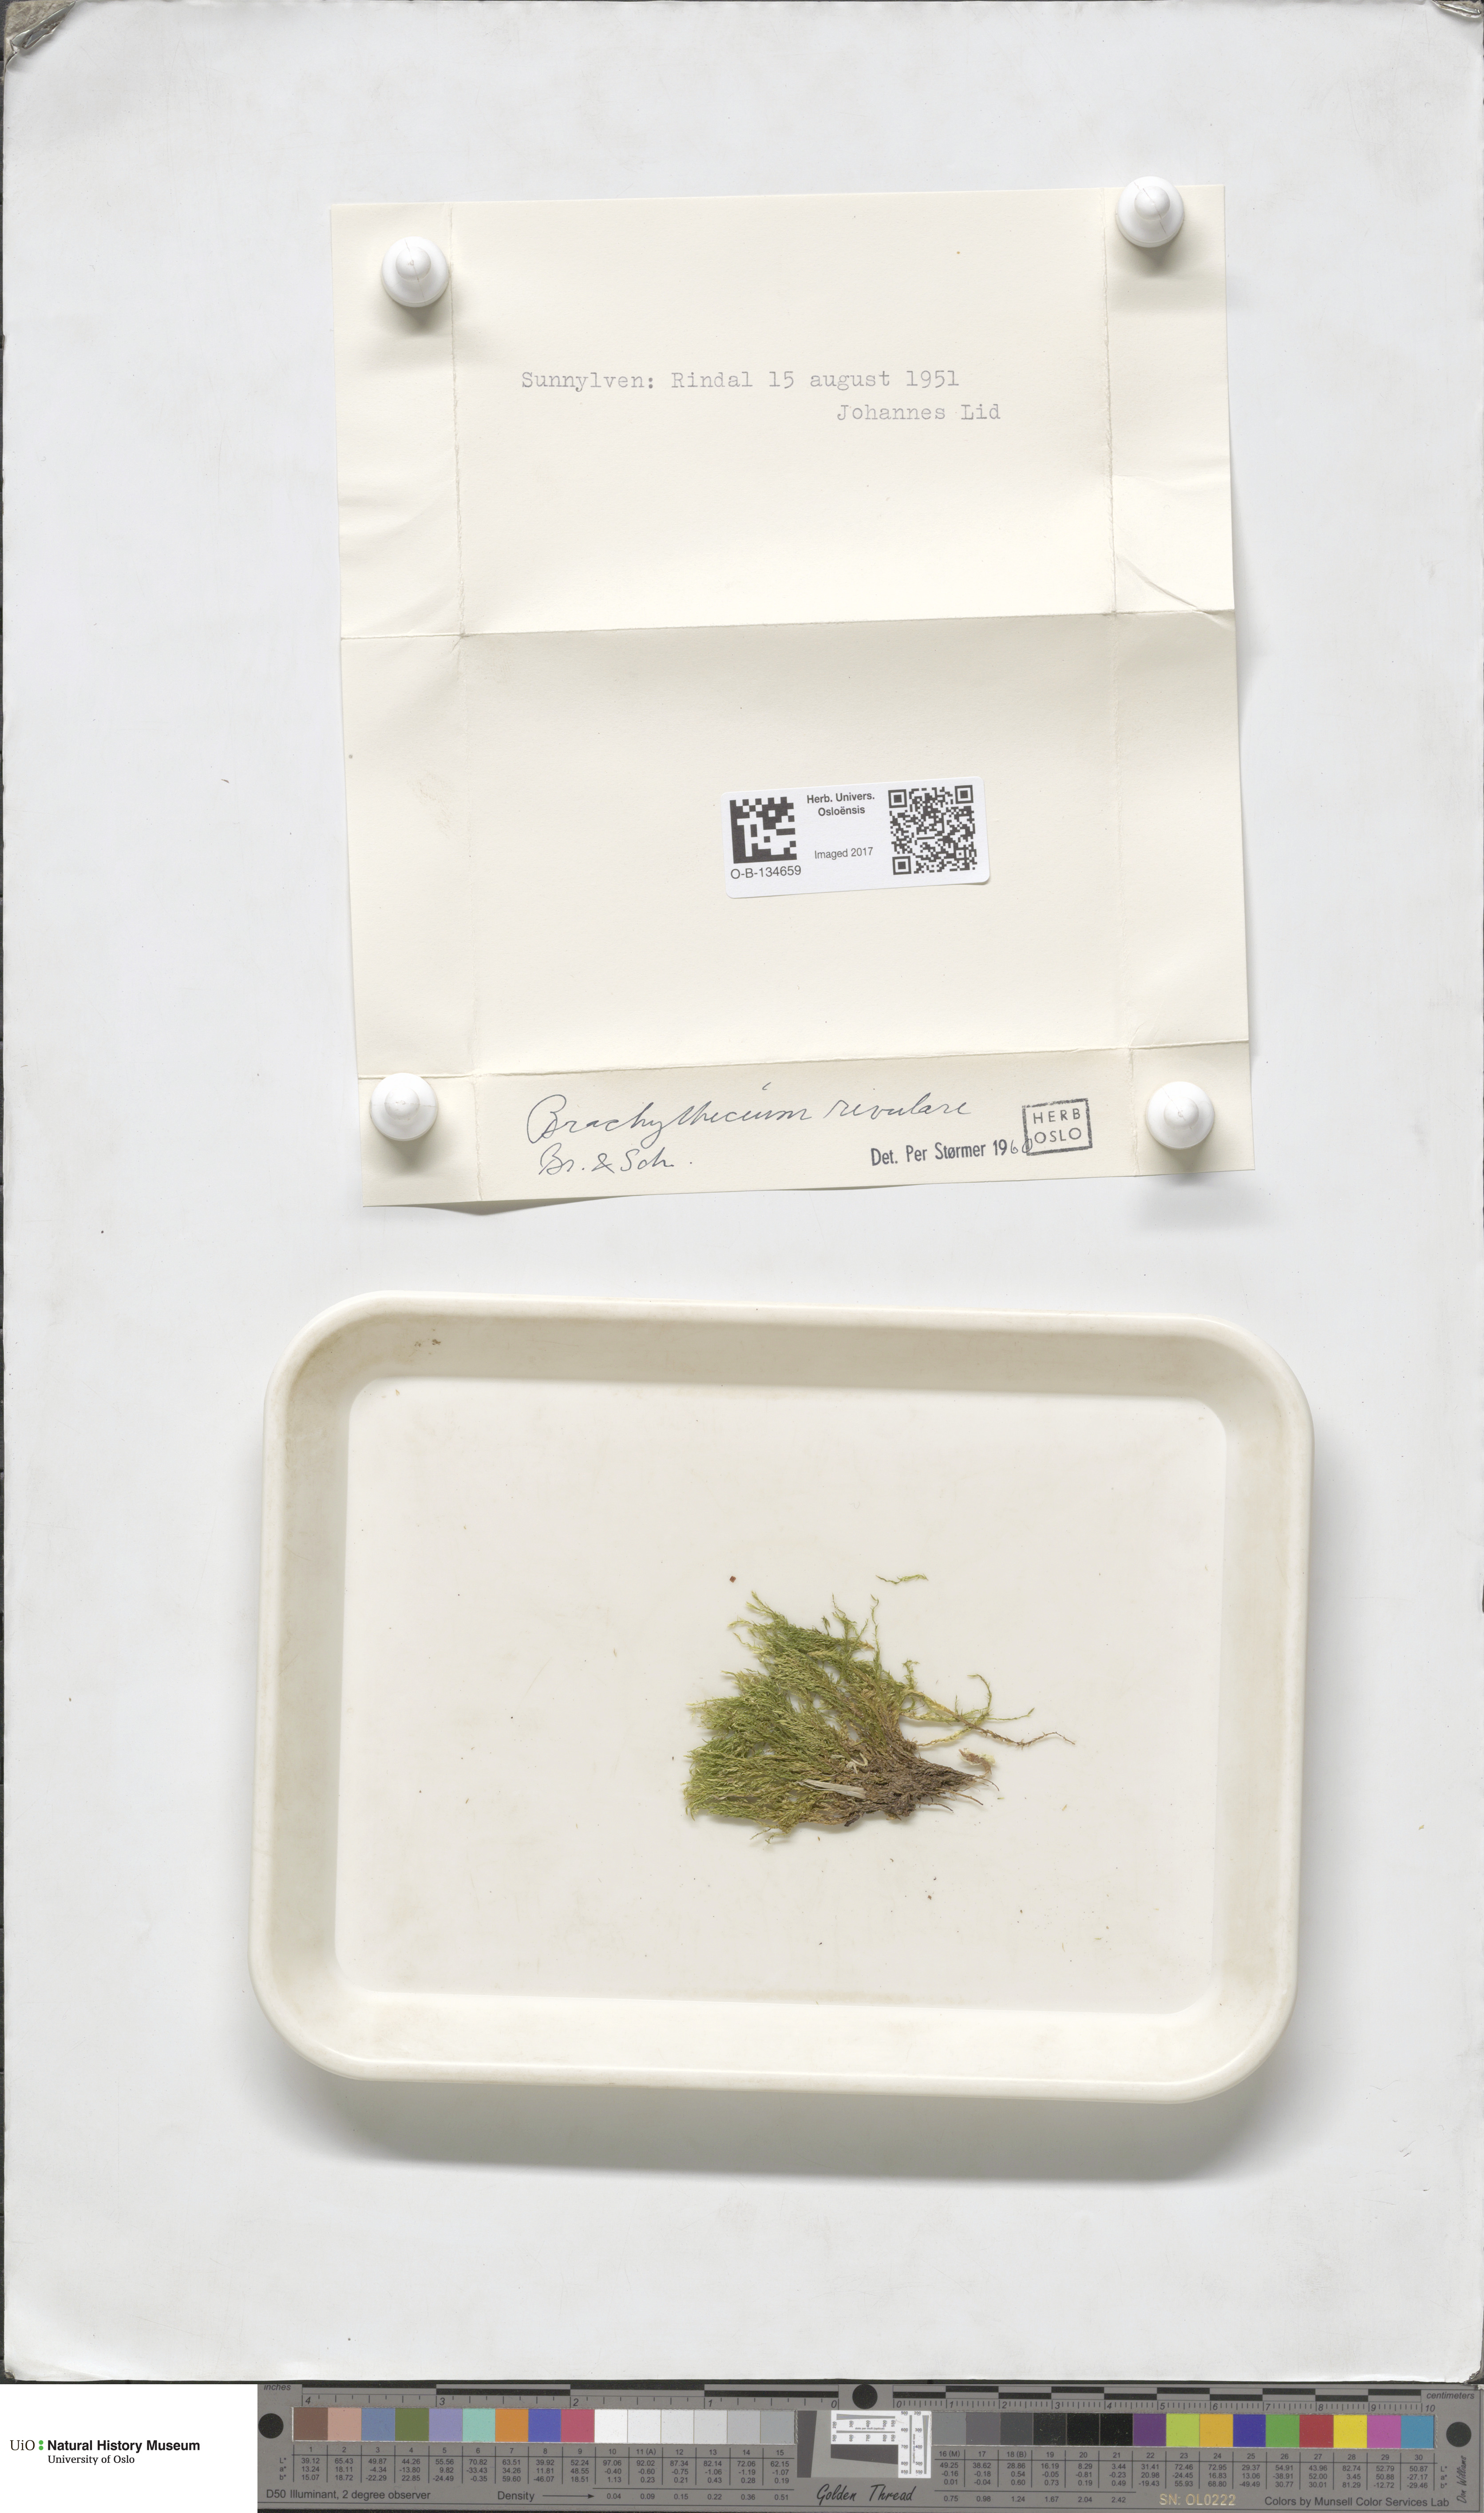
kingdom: Plantae
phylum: Bryophyta
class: Bryopsida
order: Hypnales
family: Brachytheciaceae
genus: Brachythecium
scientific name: Brachythecium rivulare
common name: River ragged moss
